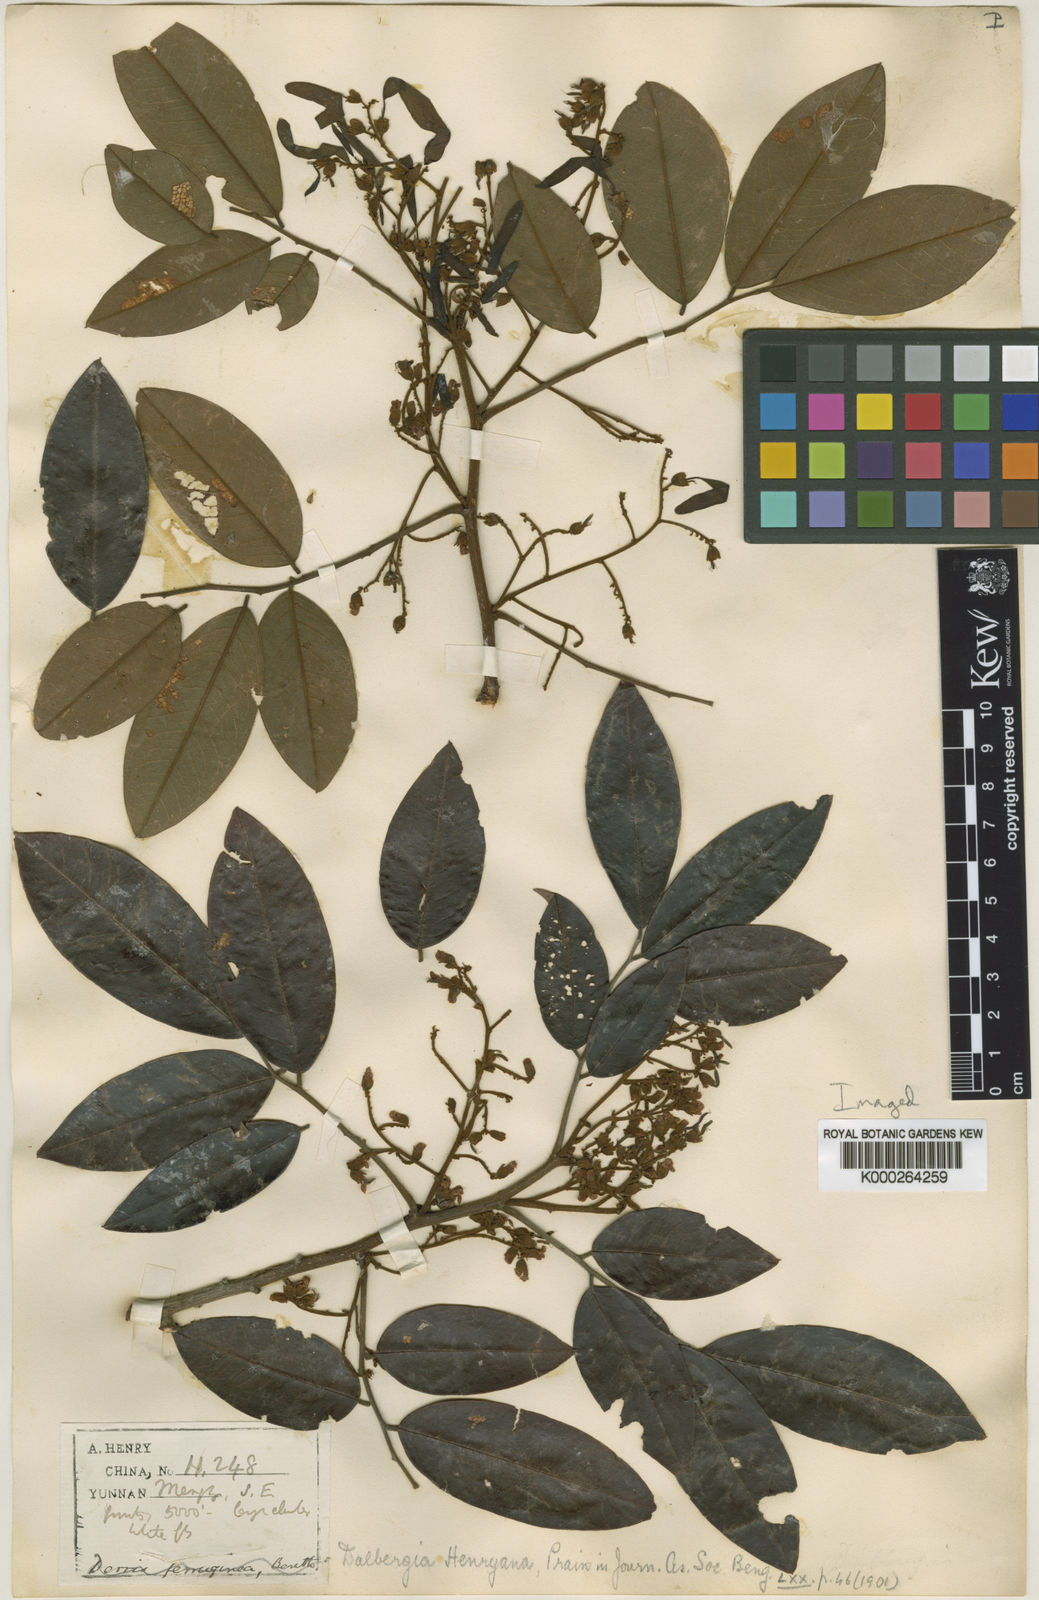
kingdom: Plantae
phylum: Tracheophyta
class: Magnoliopsida
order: Fabales
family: Fabaceae
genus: Dalbergia
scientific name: Dalbergia henryana
